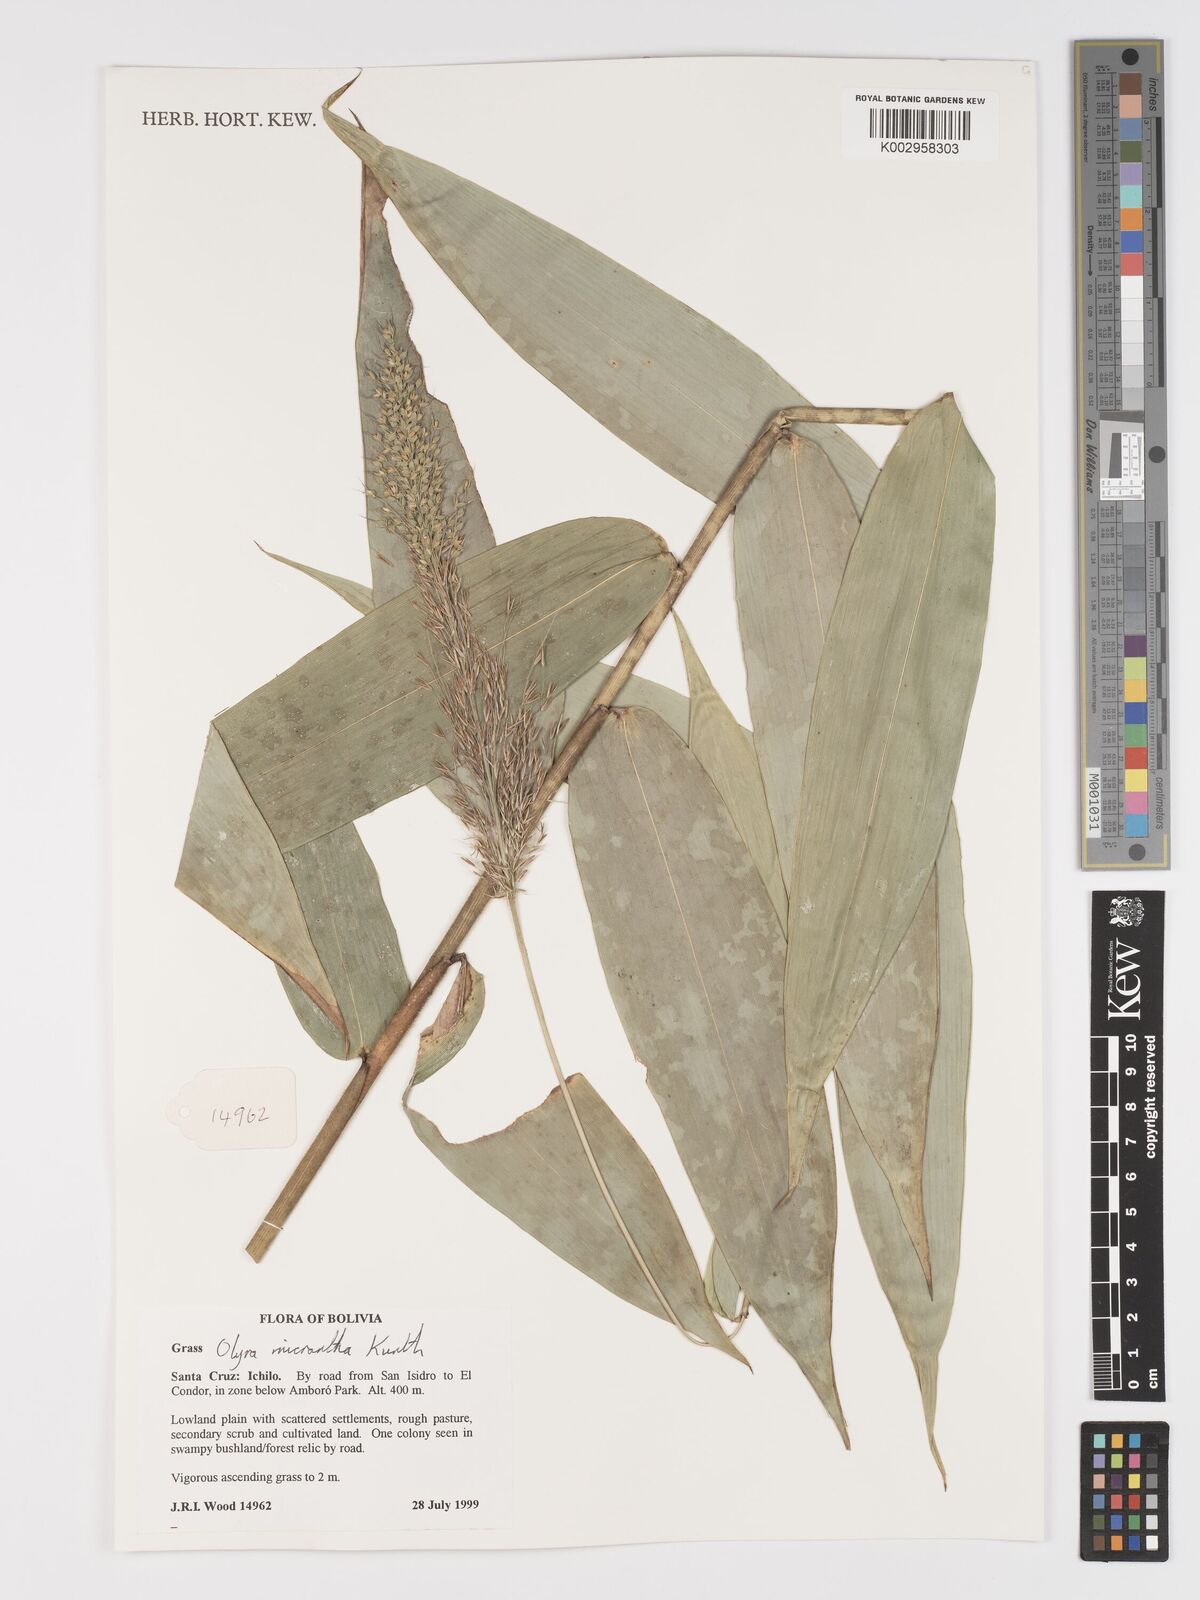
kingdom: Plantae
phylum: Tracheophyta
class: Liliopsida
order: Poales
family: Poaceae
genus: Taquara
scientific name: Taquara micrantha
